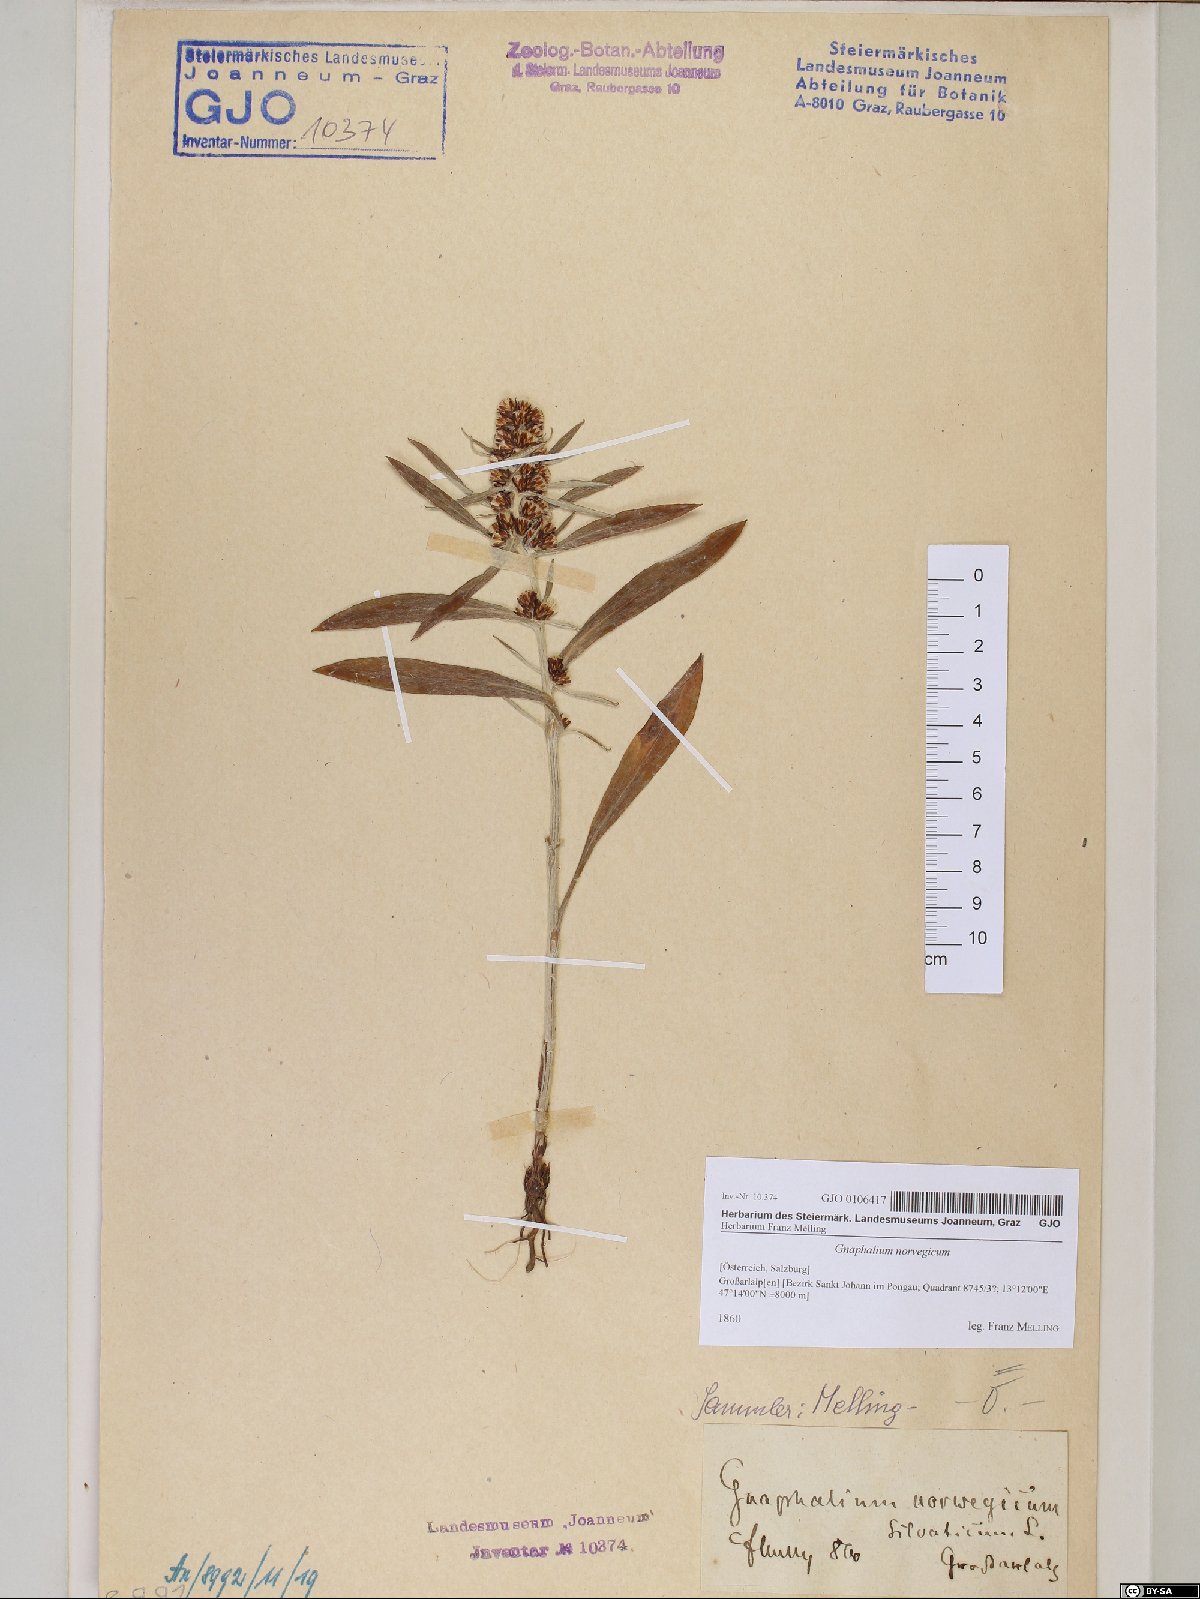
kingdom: Plantae
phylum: Tracheophyta
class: Magnoliopsida
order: Asterales
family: Asteraceae
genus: Omalotheca
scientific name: Omalotheca norvegica
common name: Norwegian arctic-cudweed
